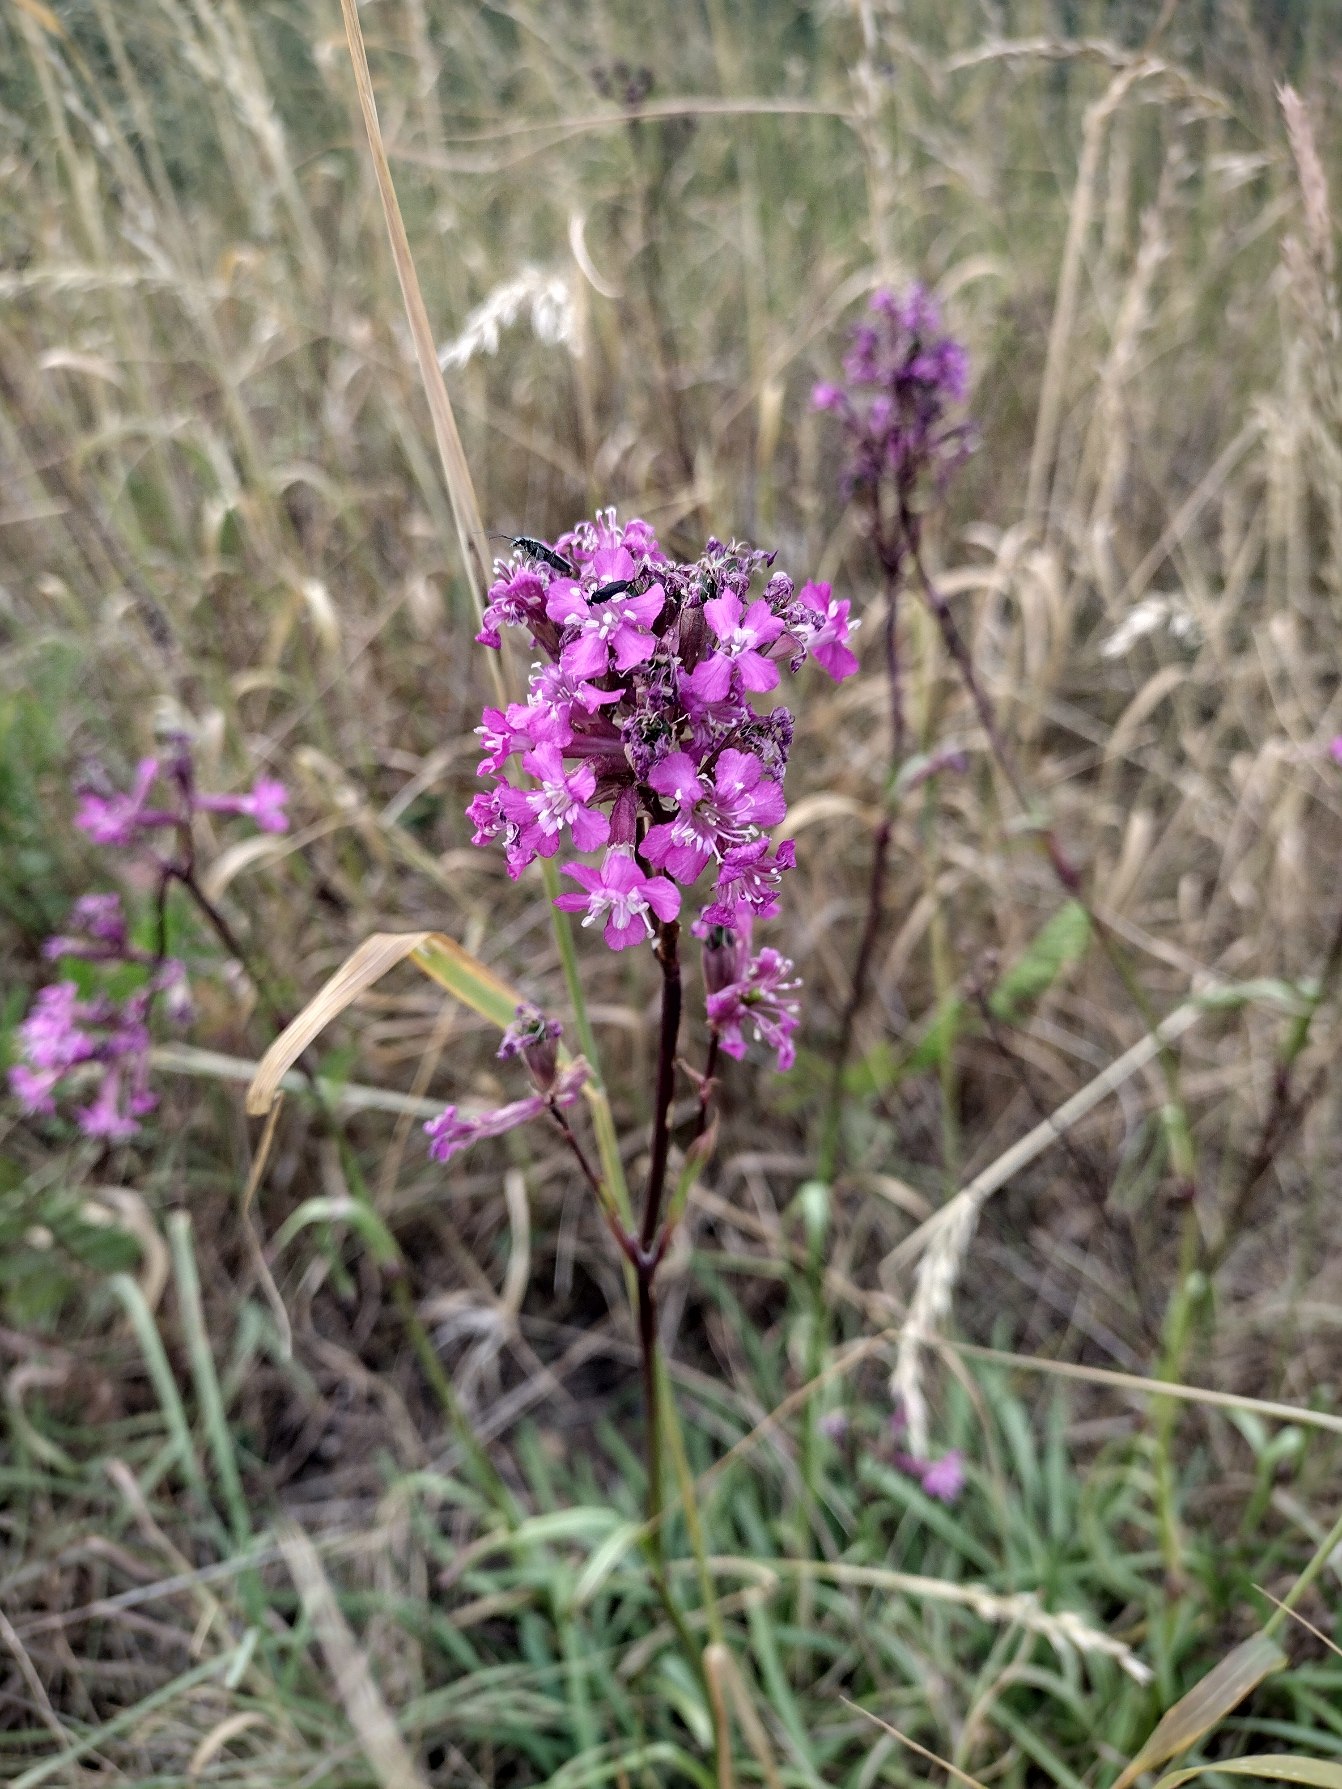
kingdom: Plantae
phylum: Tracheophyta
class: Magnoliopsida
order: Caryophyllales
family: Caryophyllaceae
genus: Viscaria
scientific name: Viscaria vulgaris
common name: Tjærenellike
